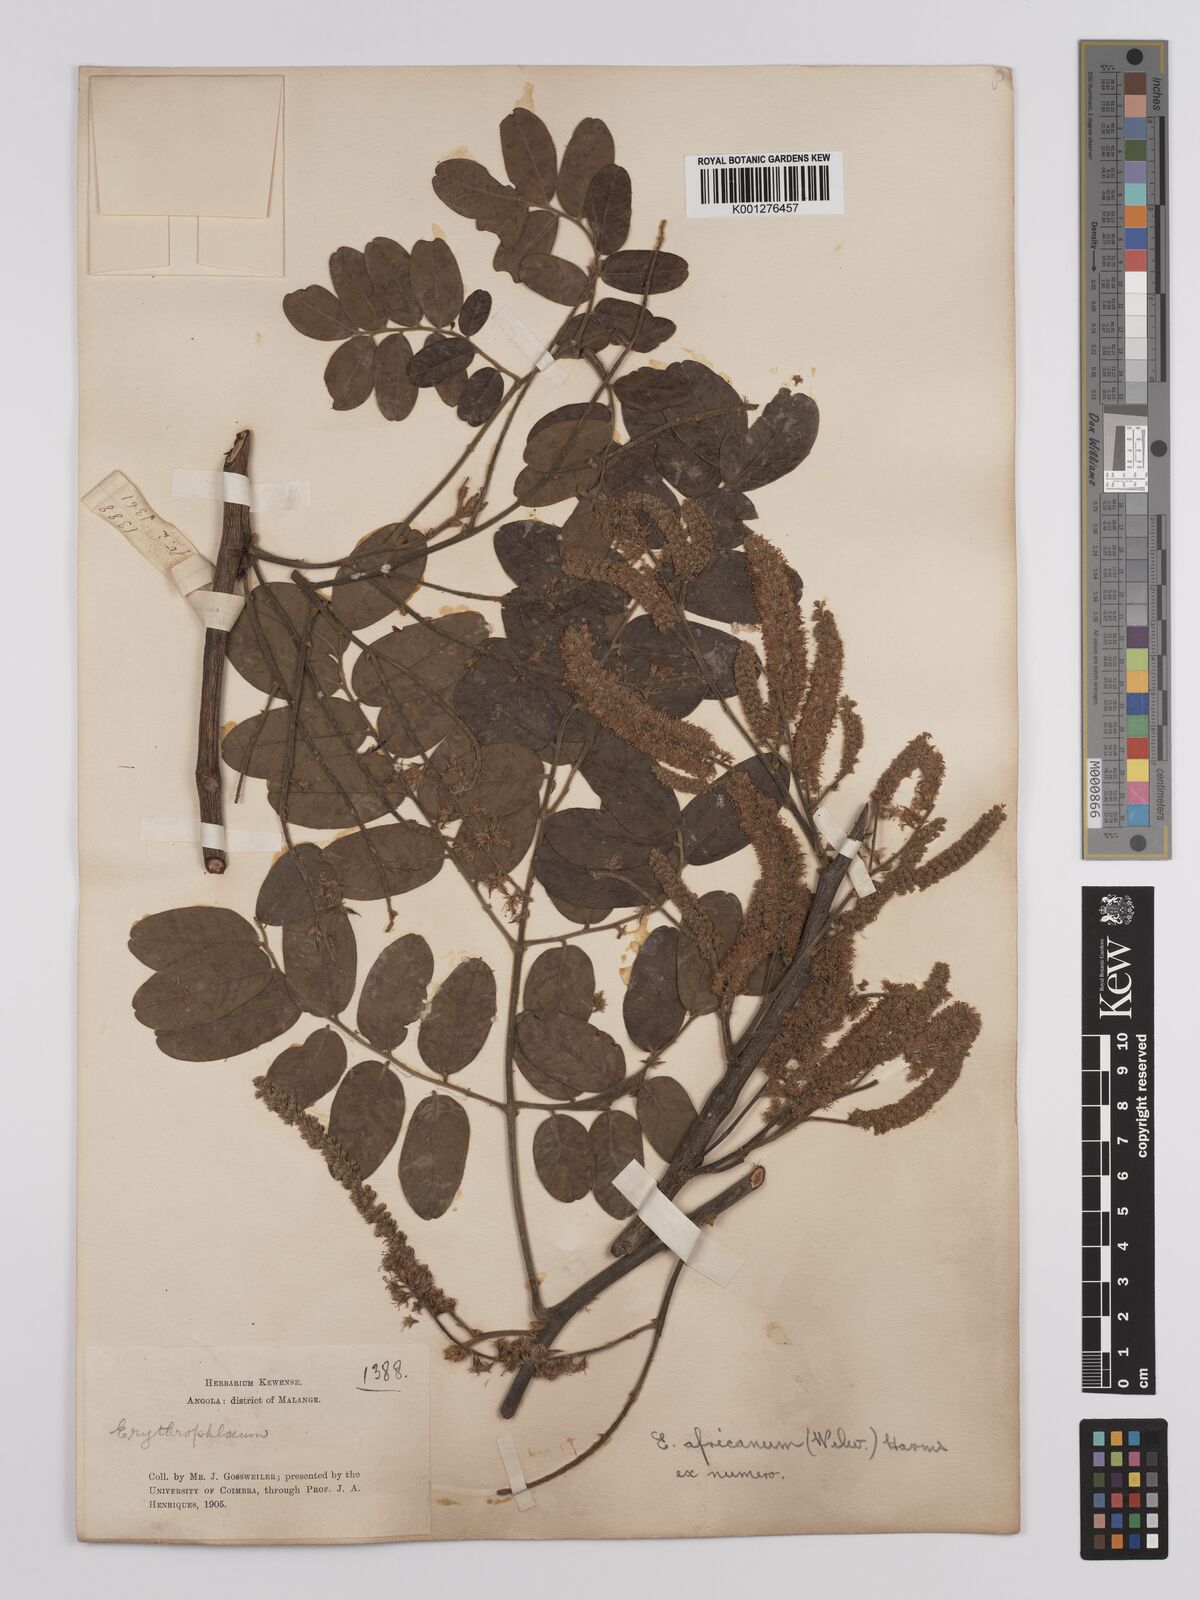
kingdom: Plantae
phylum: Tracheophyta
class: Magnoliopsida
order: Fabales
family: Fabaceae
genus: Erythrophleum
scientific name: Erythrophleum africanum
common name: African blackwood
